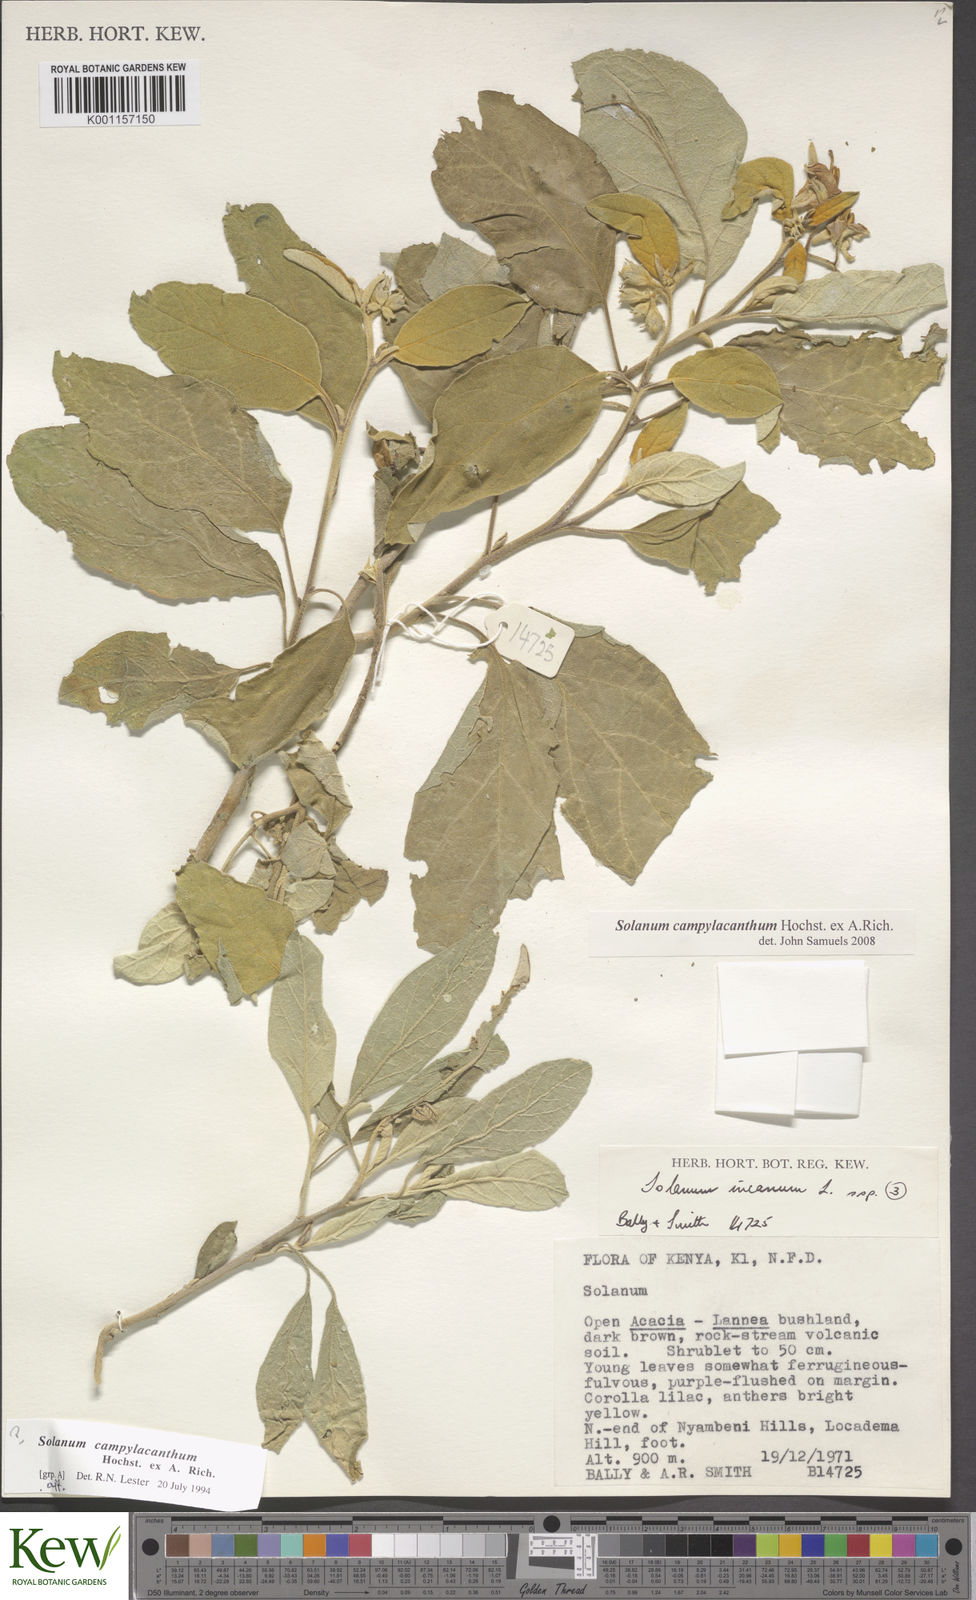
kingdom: Plantae
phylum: Tracheophyta
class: Magnoliopsida
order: Solanales
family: Solanaceae
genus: Solanum
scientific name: Solanum campylacanthum
